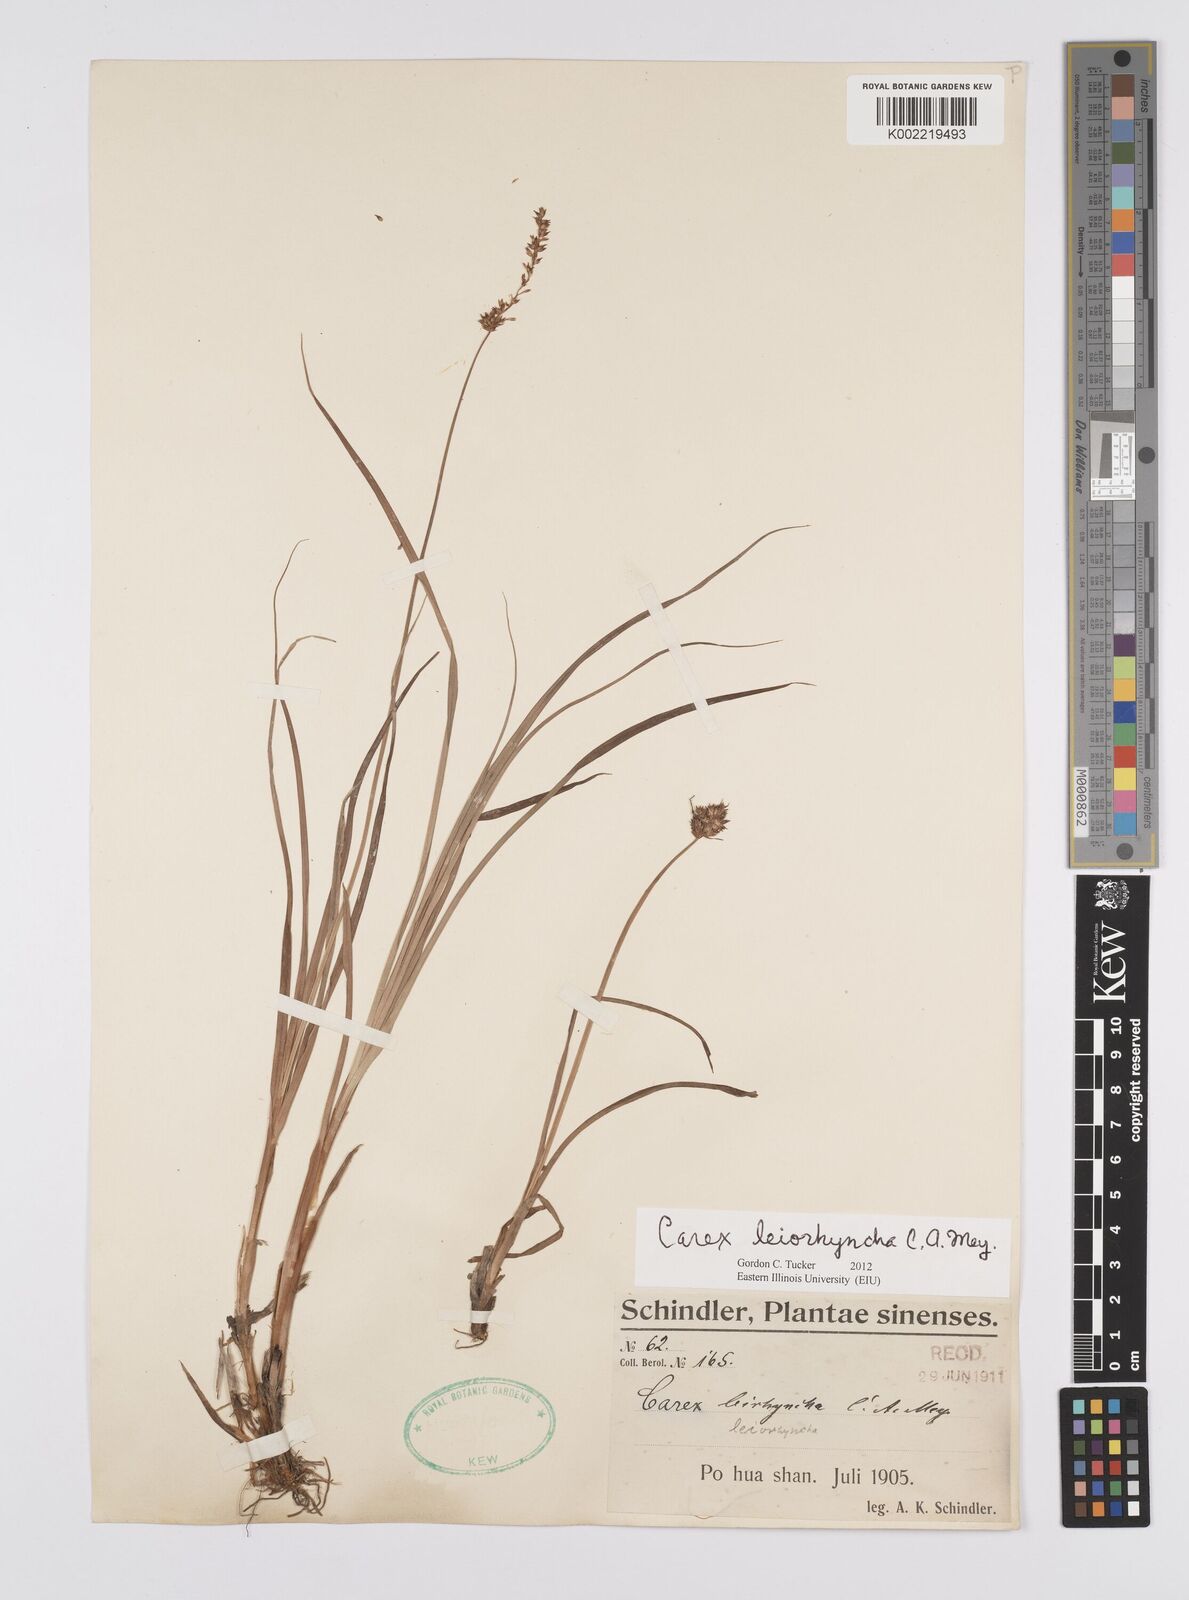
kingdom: Plantae
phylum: Tracheophyta
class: Liliopsida
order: Poales
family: Cyperaceae
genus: Carex
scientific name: Carex leiorhyncha
